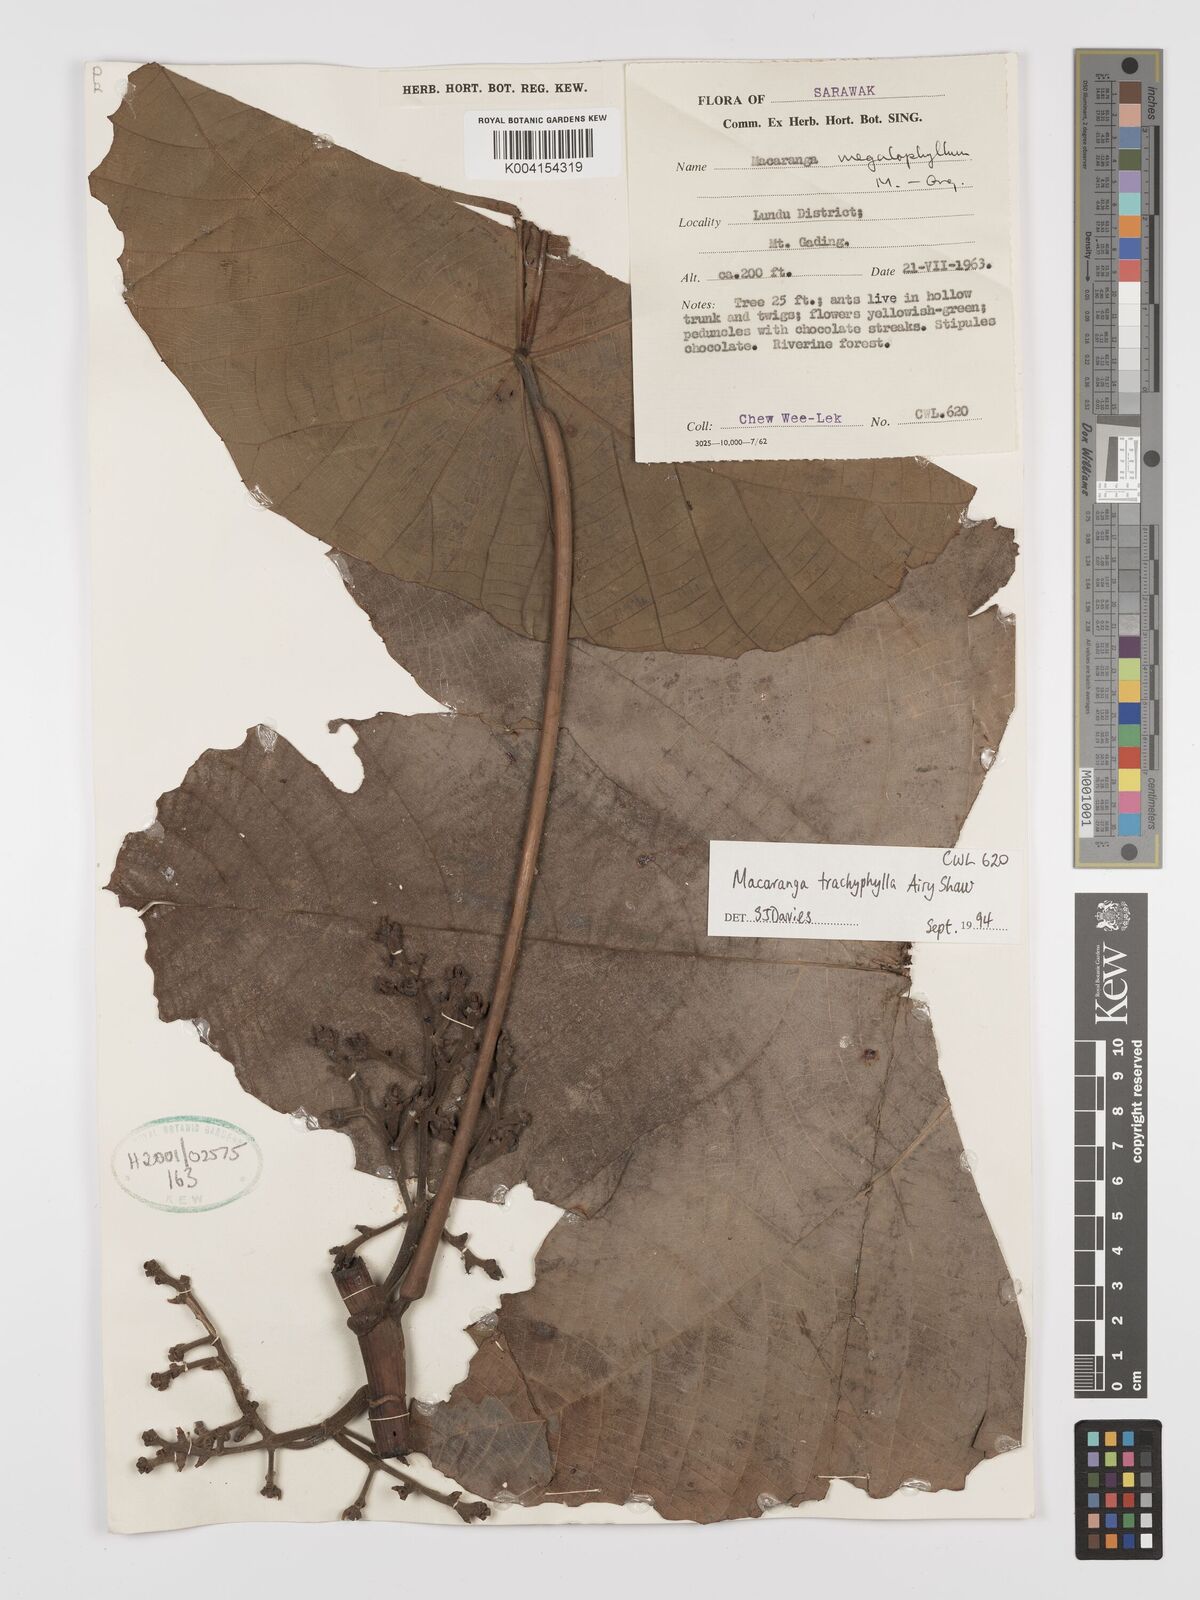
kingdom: Plantae
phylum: Tracheophyta
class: Magnoliopsida
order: Malpighiales
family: Euphorbiaceae
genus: Macaranga
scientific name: Macaranga trachyphylla
